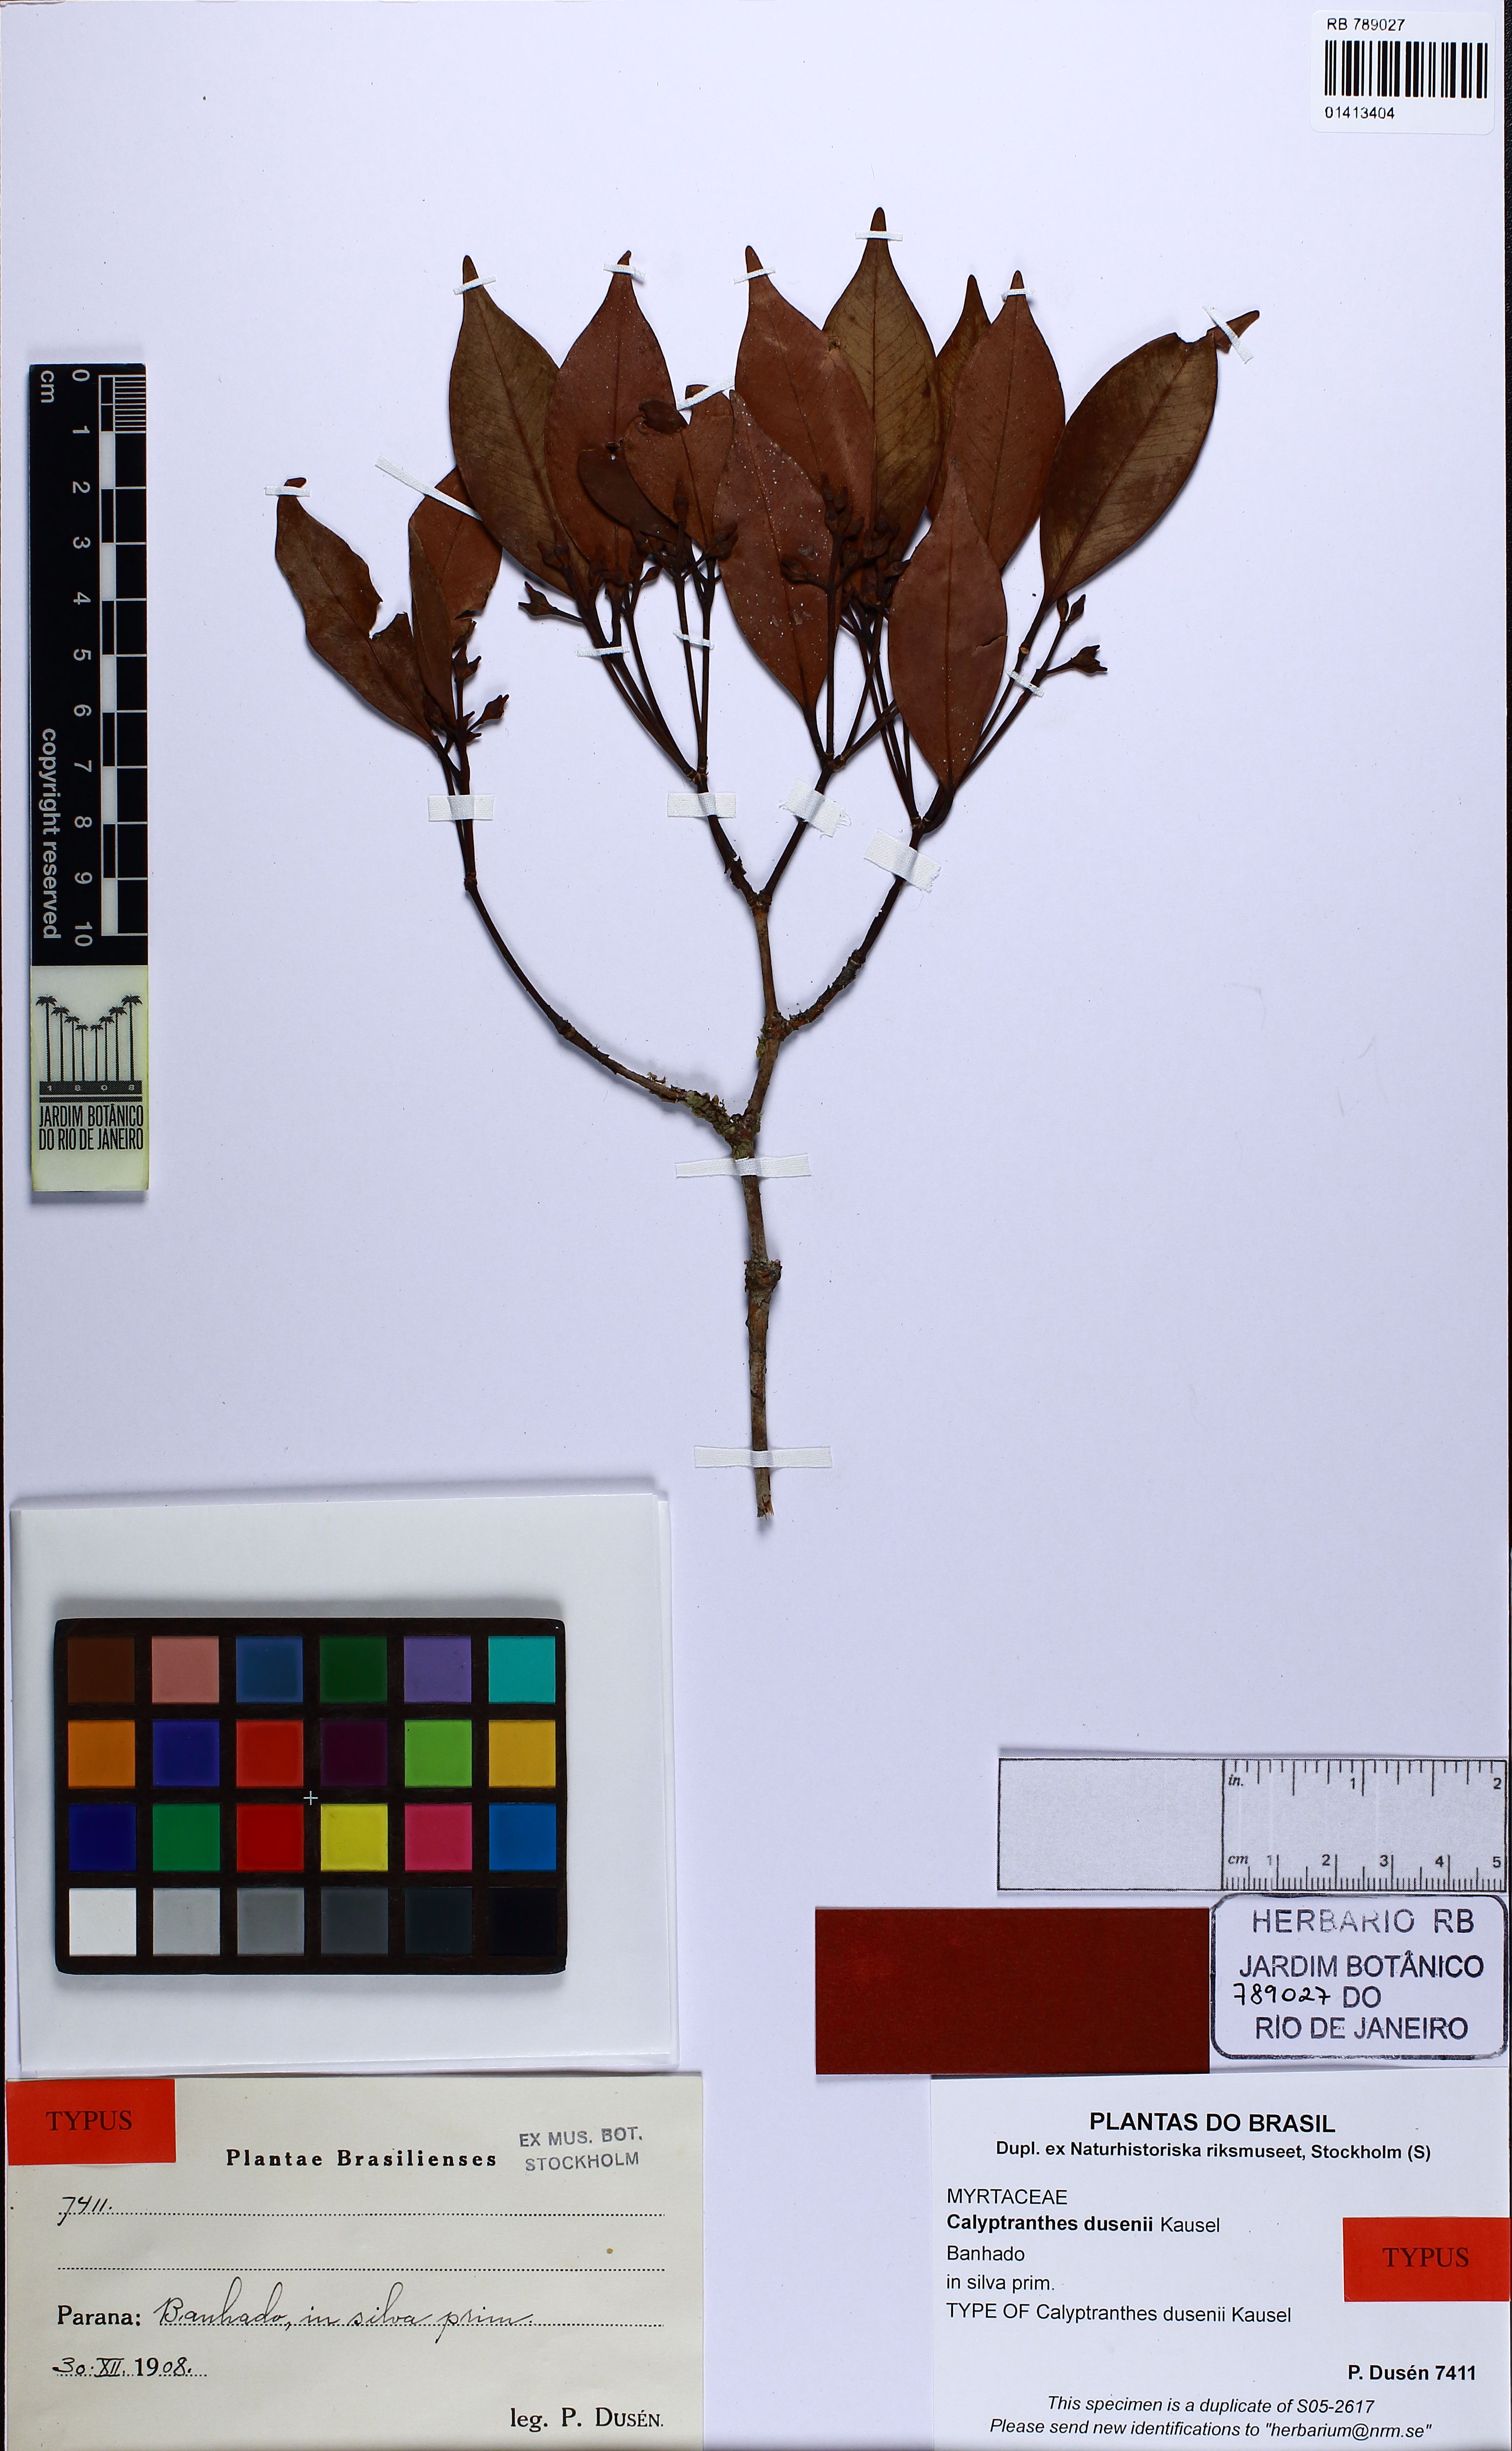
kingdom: Plantae
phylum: Tracheophyta
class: Magnoliopsida
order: Myrtales
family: Myrtaceae
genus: Calyptranthes
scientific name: Calyptranthes dusenii
